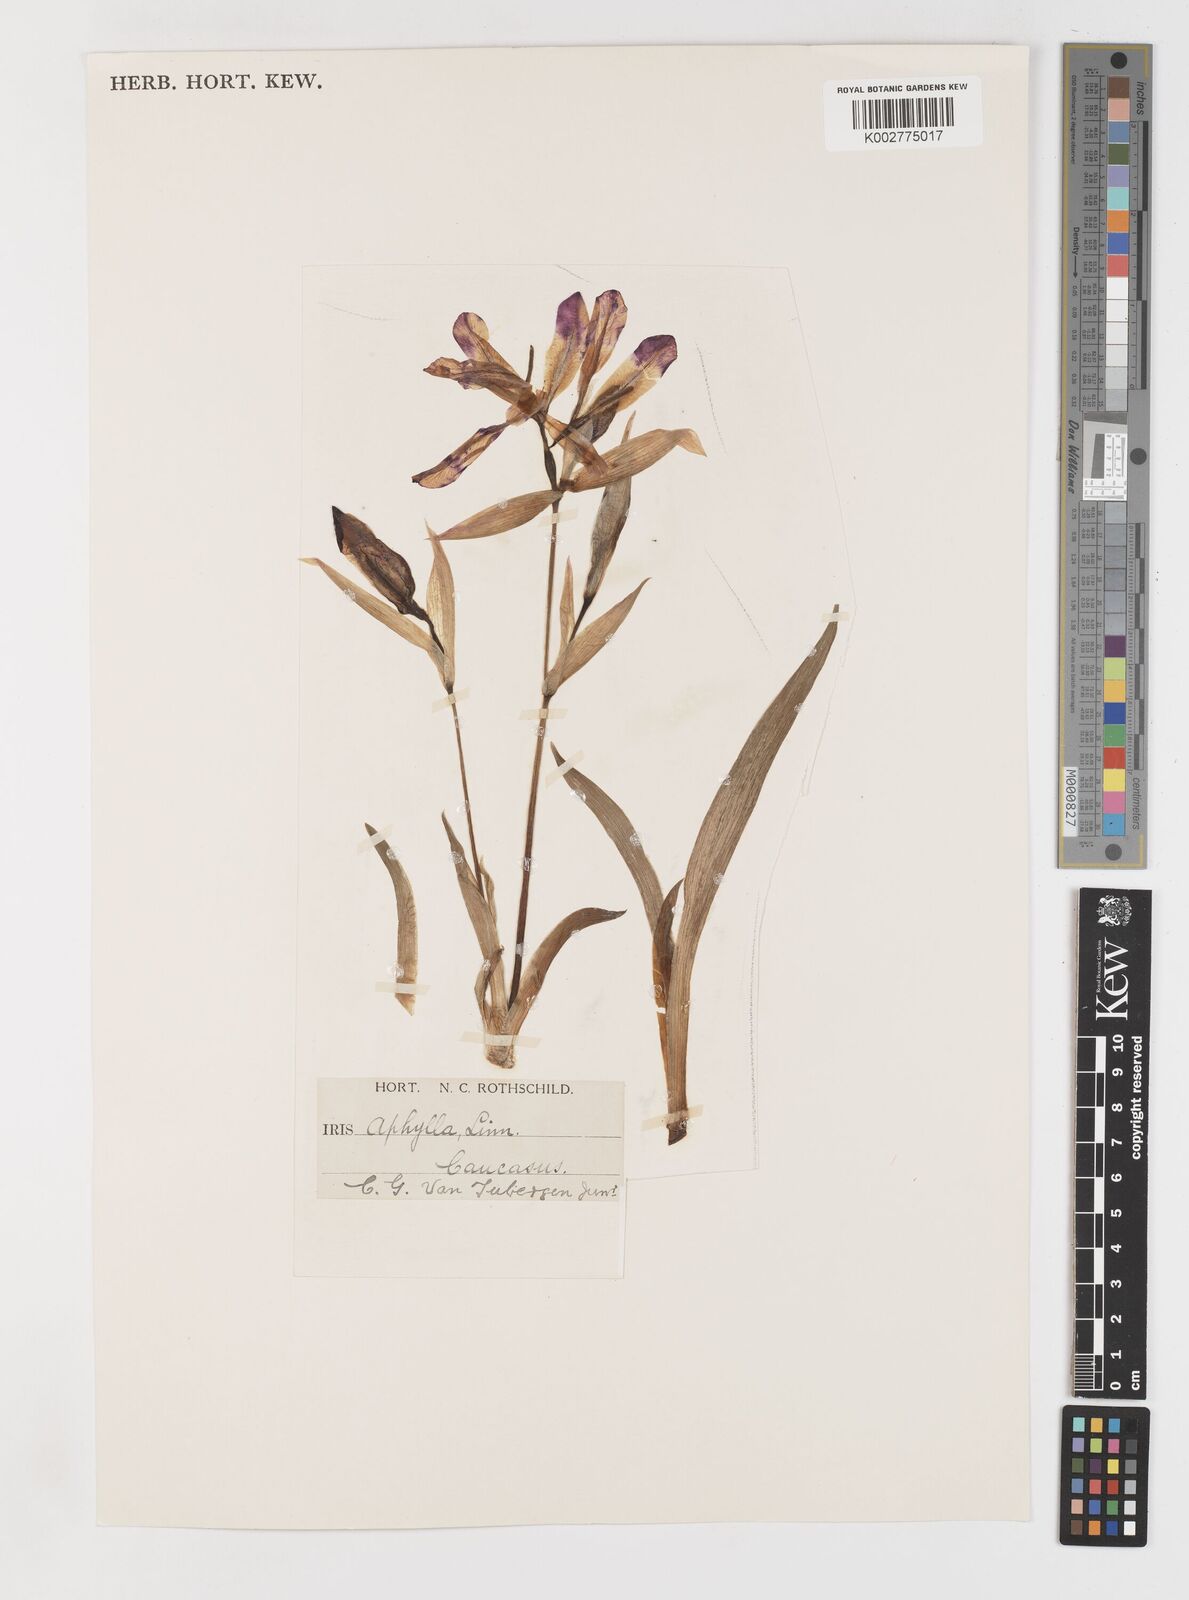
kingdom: Plantae
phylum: Tracheophyta
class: Liliopsida
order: Asparagales
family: Iridaceae
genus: Iris
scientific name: Iris aphylla
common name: Stool iris
